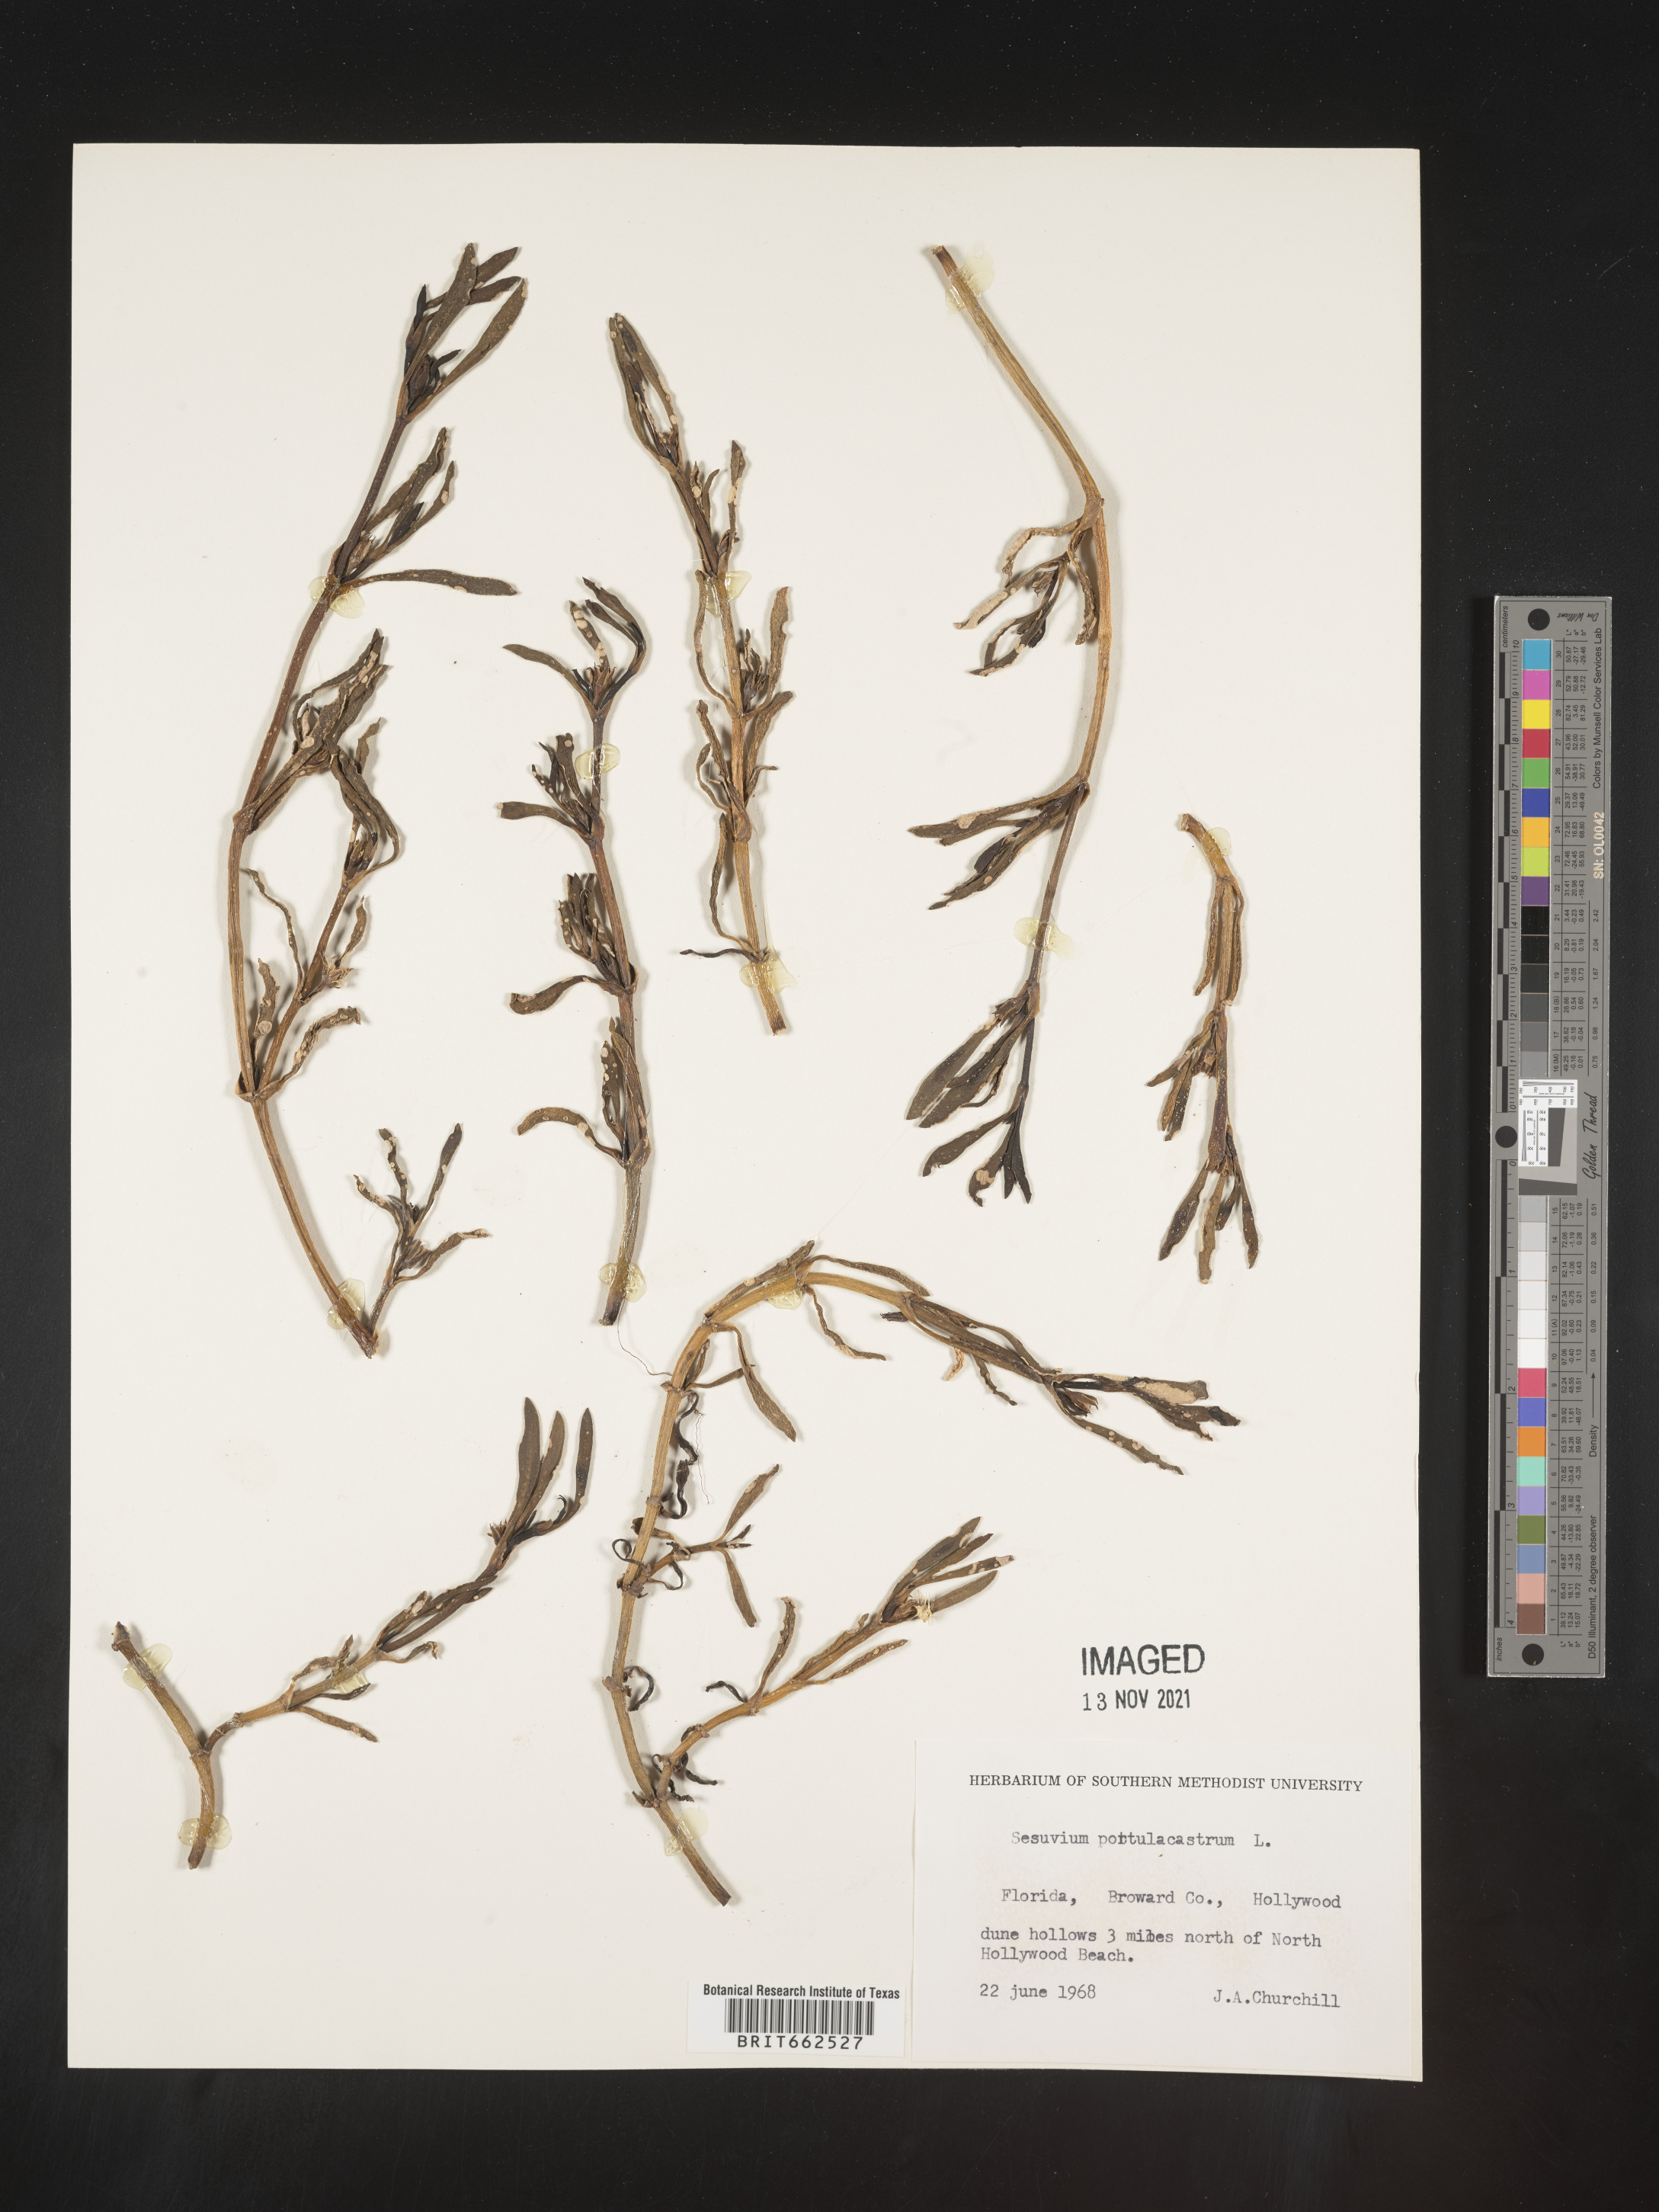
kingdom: Plantae
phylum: Tracheophyta
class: Magnoliopsida
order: Caryophyllales
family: Aizoaceae
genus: Sesuvium
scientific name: Sesuvium portulacastrum
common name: Sea-purslane
